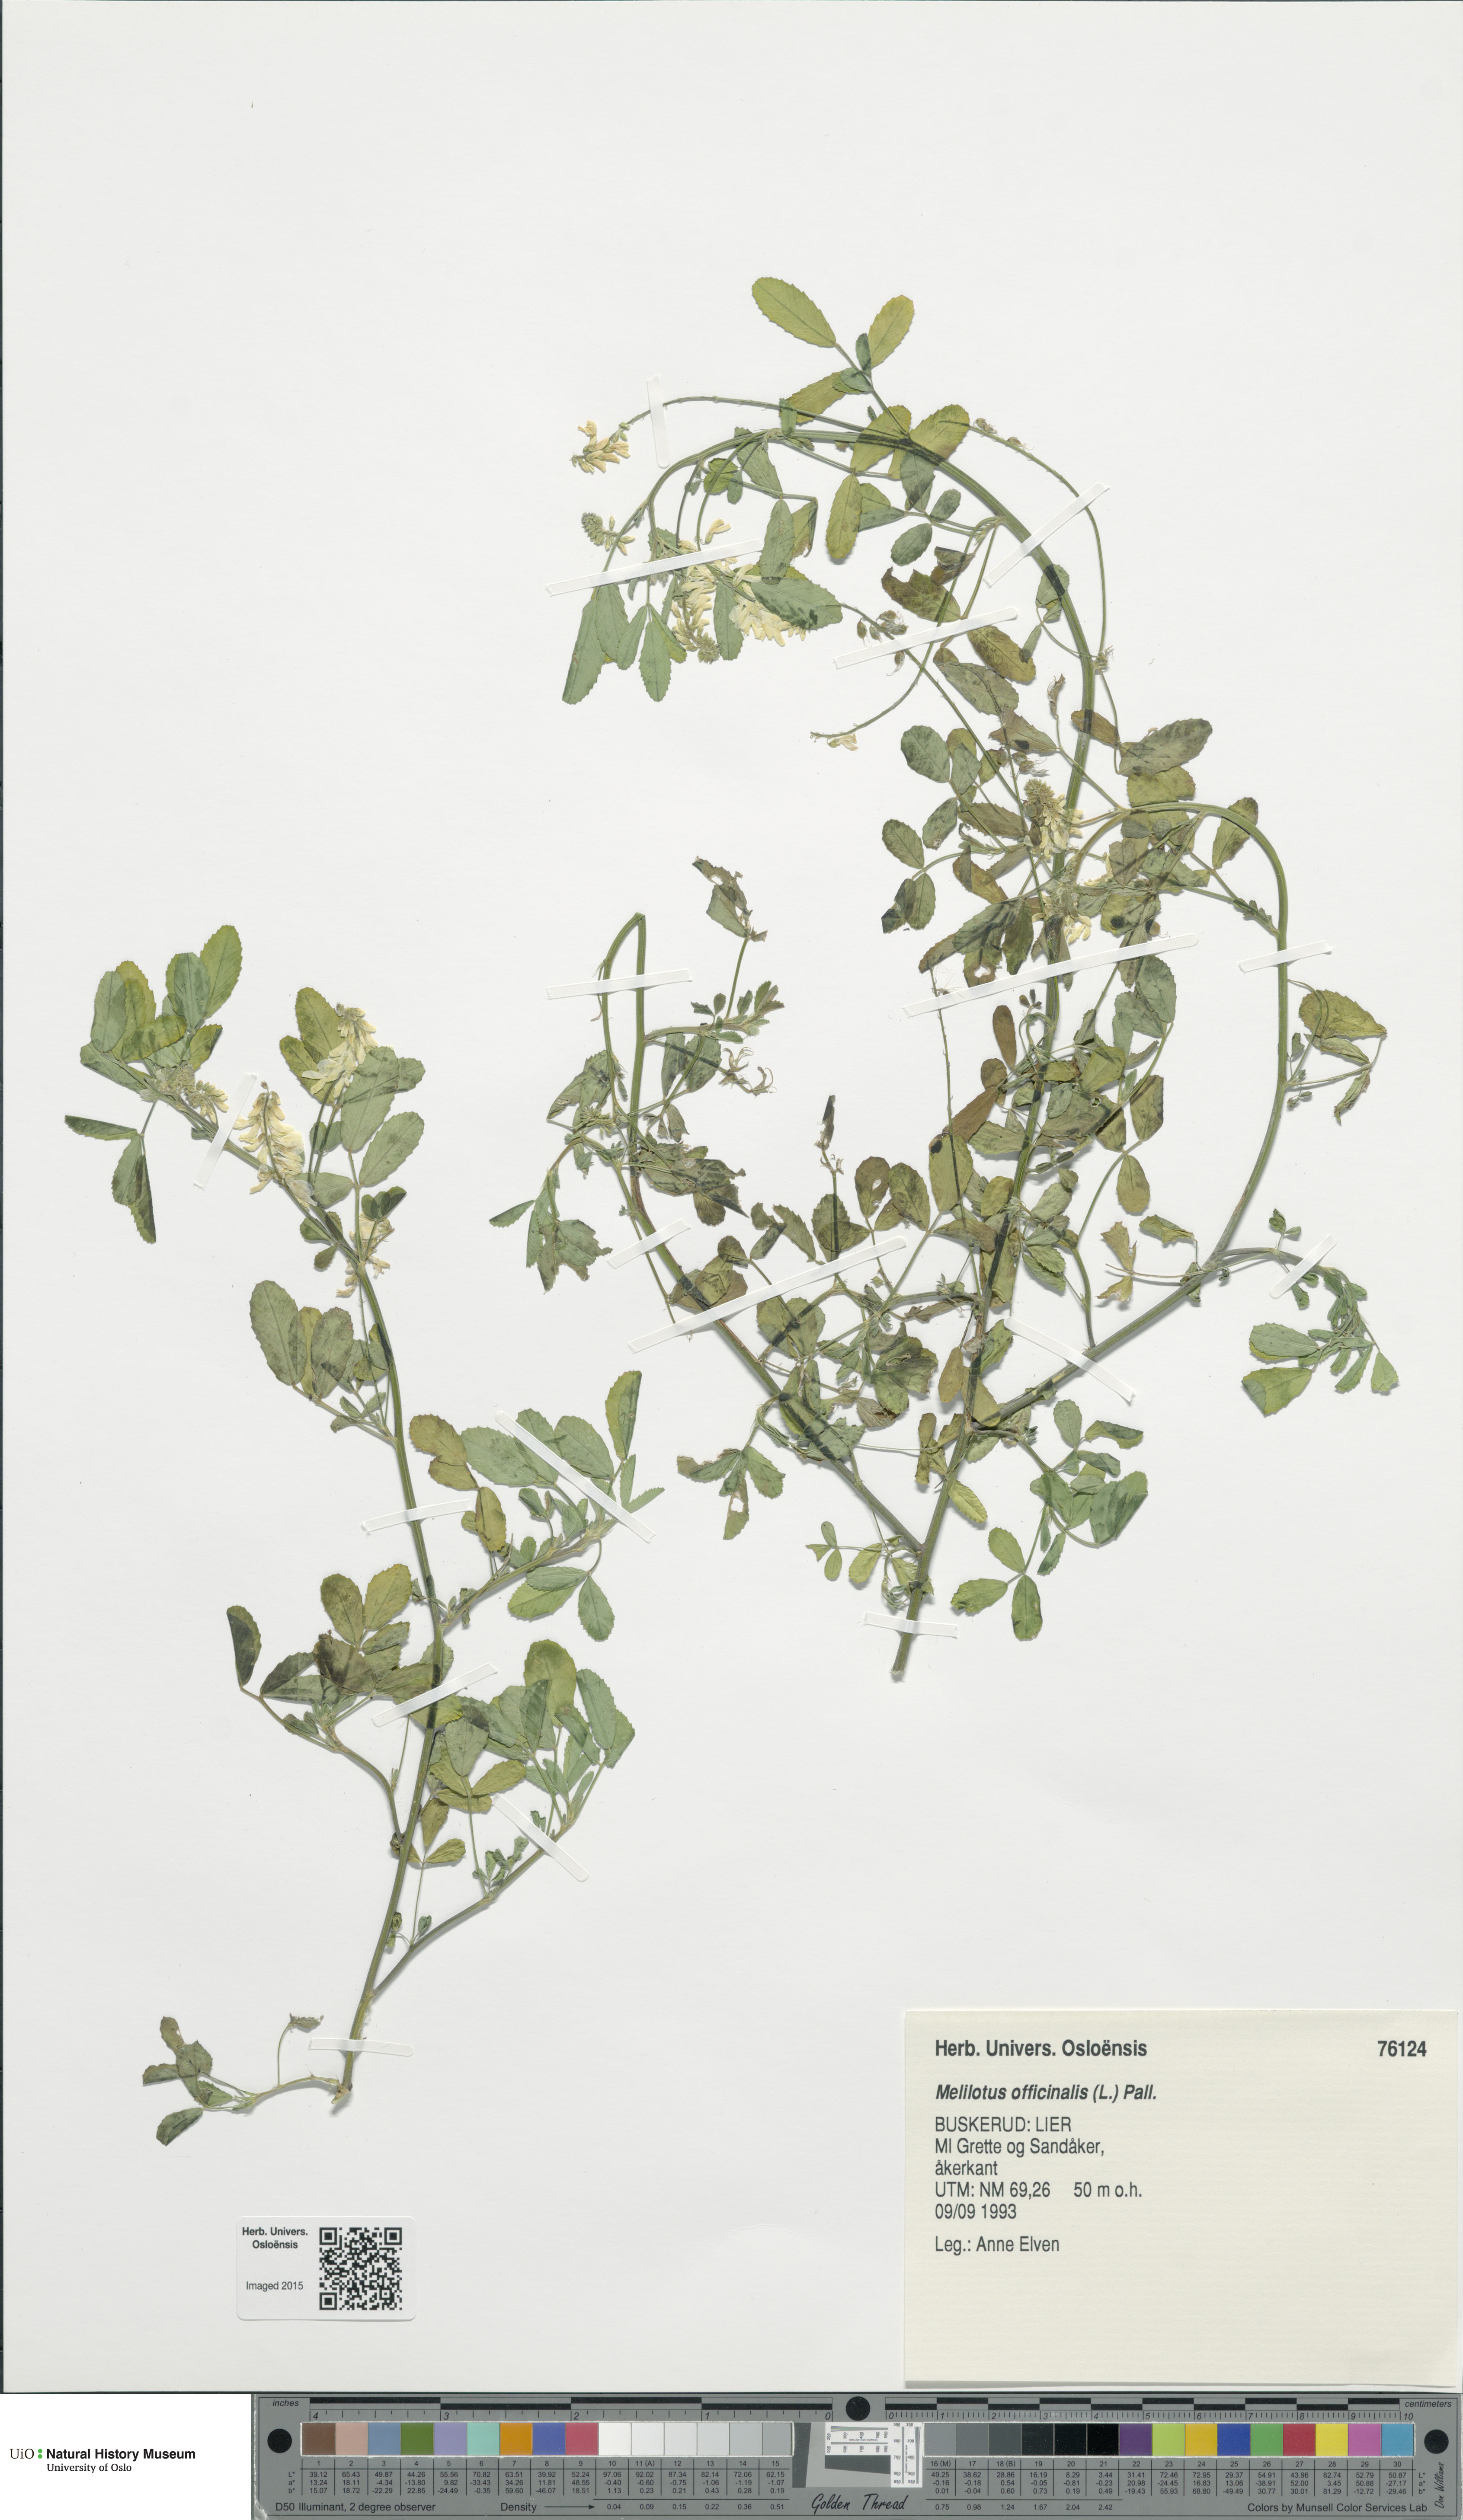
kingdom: Plantae
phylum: Tracheophyta
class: Magnoliopsida
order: Fabales
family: Fabaceae
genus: Melilotus
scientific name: Melilotus officinalis
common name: Sweetclover
